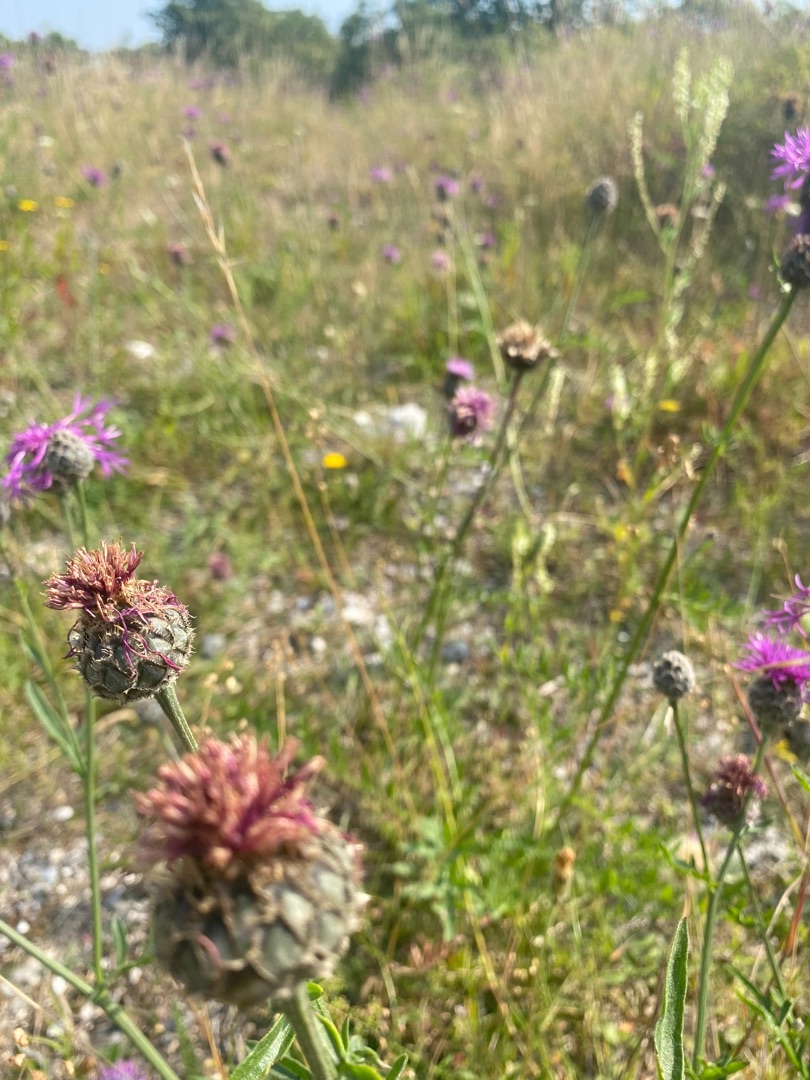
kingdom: Plantae
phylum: Tracheophyta
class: Magnoliopsida
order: Asterales
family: Asteraceae
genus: Centaurea
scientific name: Centaurea scabiosa
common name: Stor knopurt
